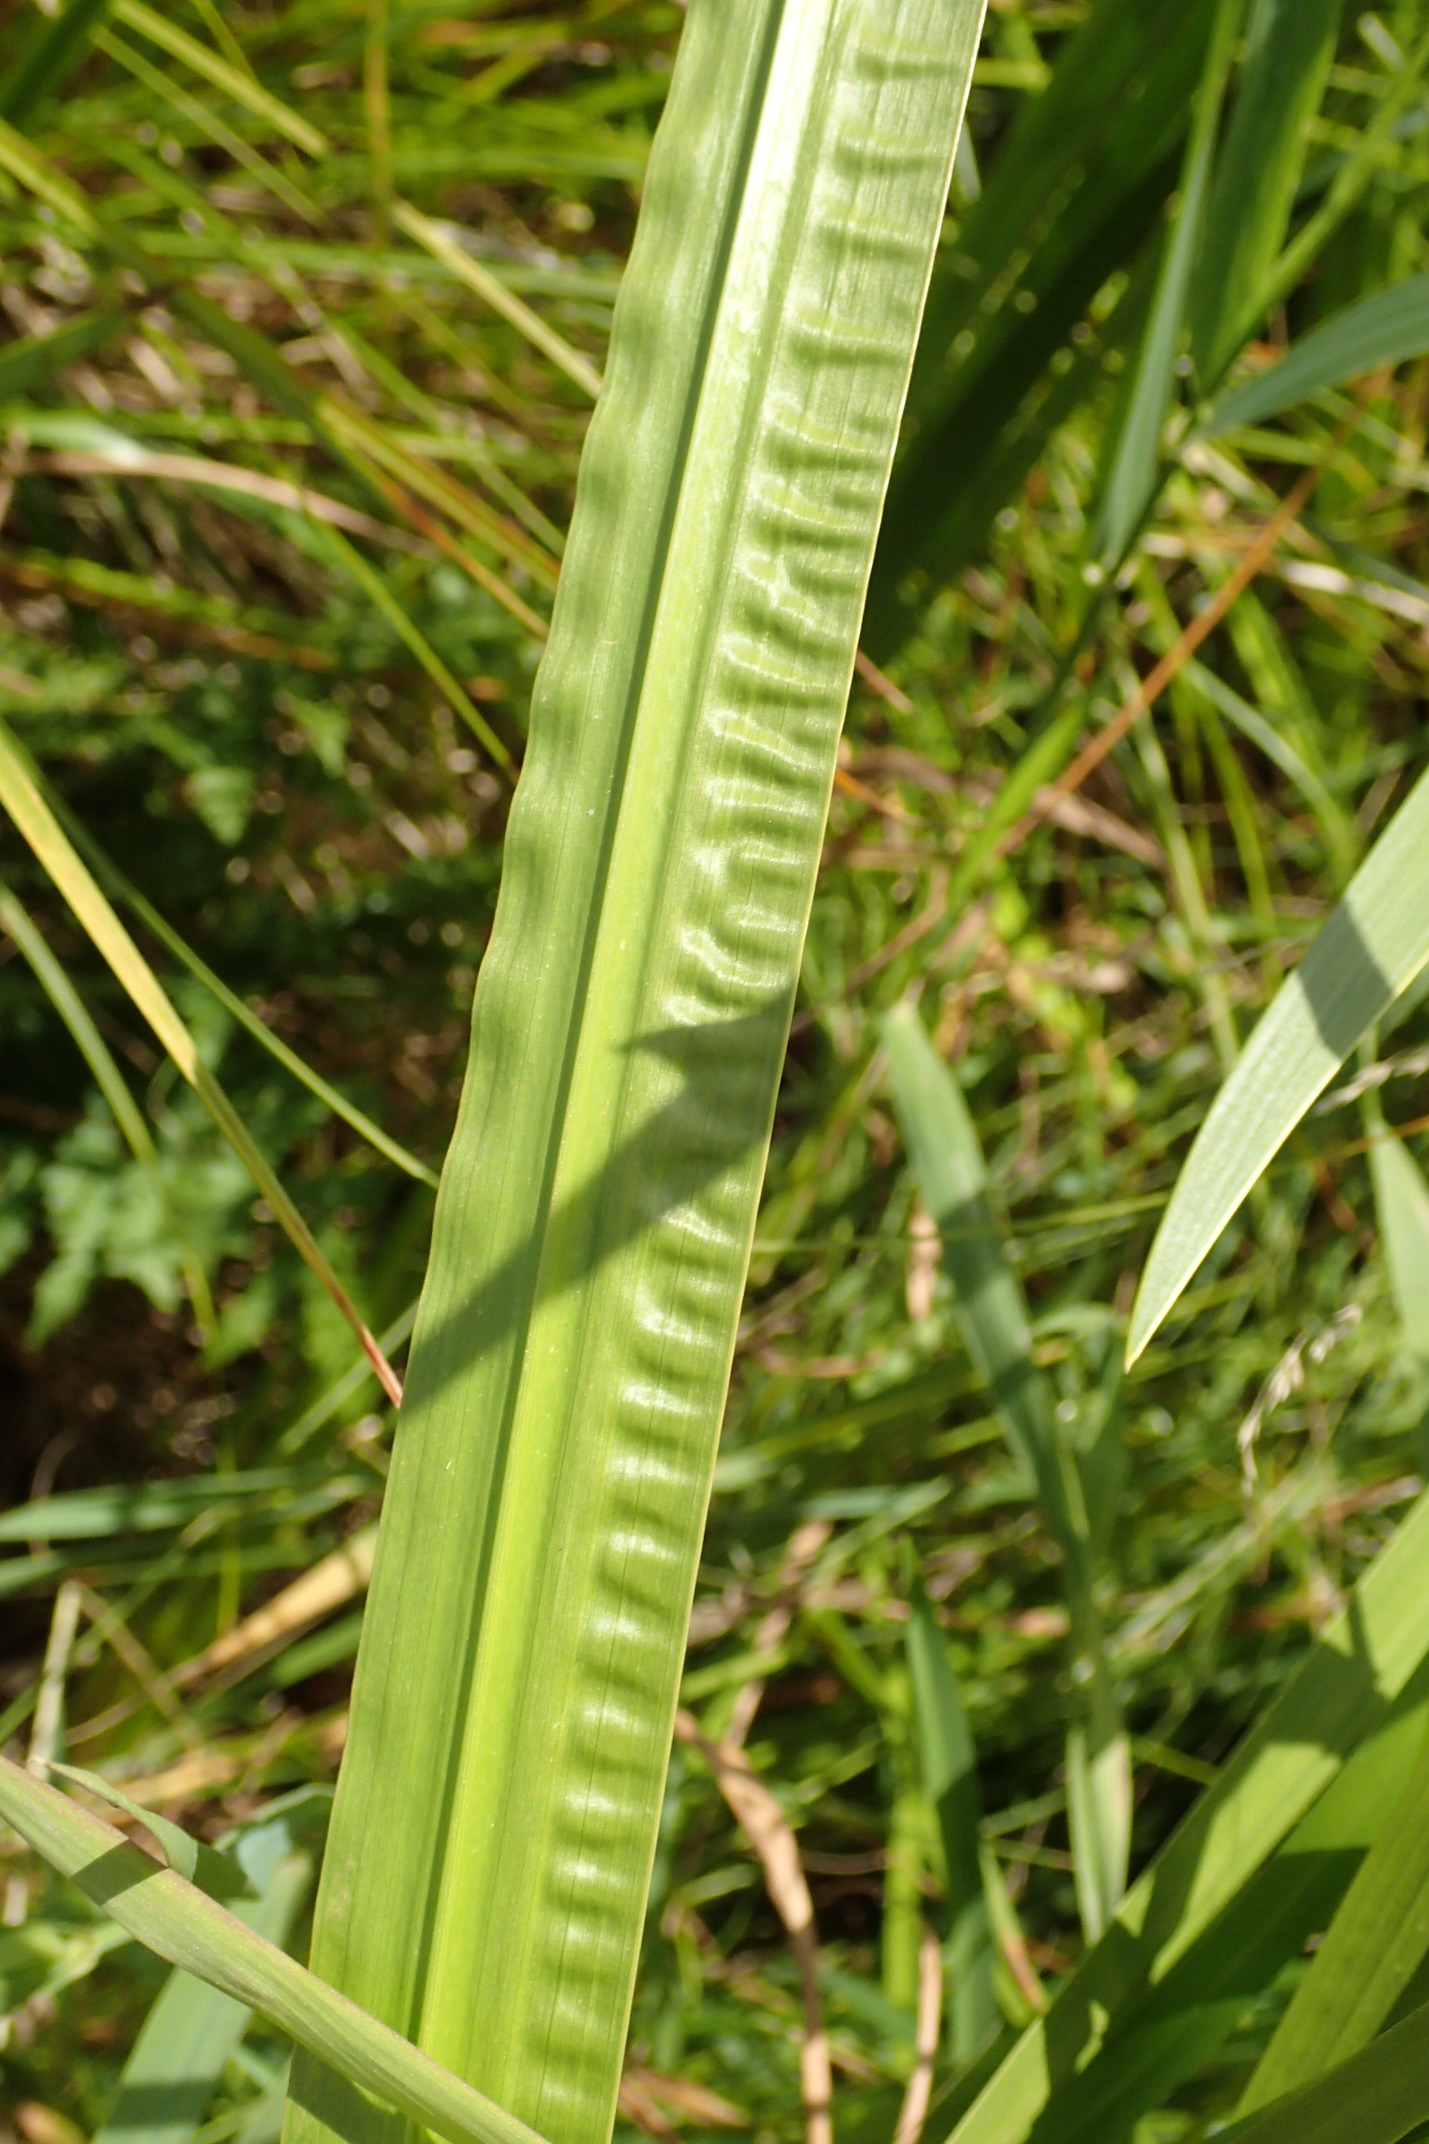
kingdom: Plantae
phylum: Tracheophyta
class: Liliopsida
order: Acorales
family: Acoraceae
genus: Acorus
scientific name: Acorus calamus
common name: Kalmus
